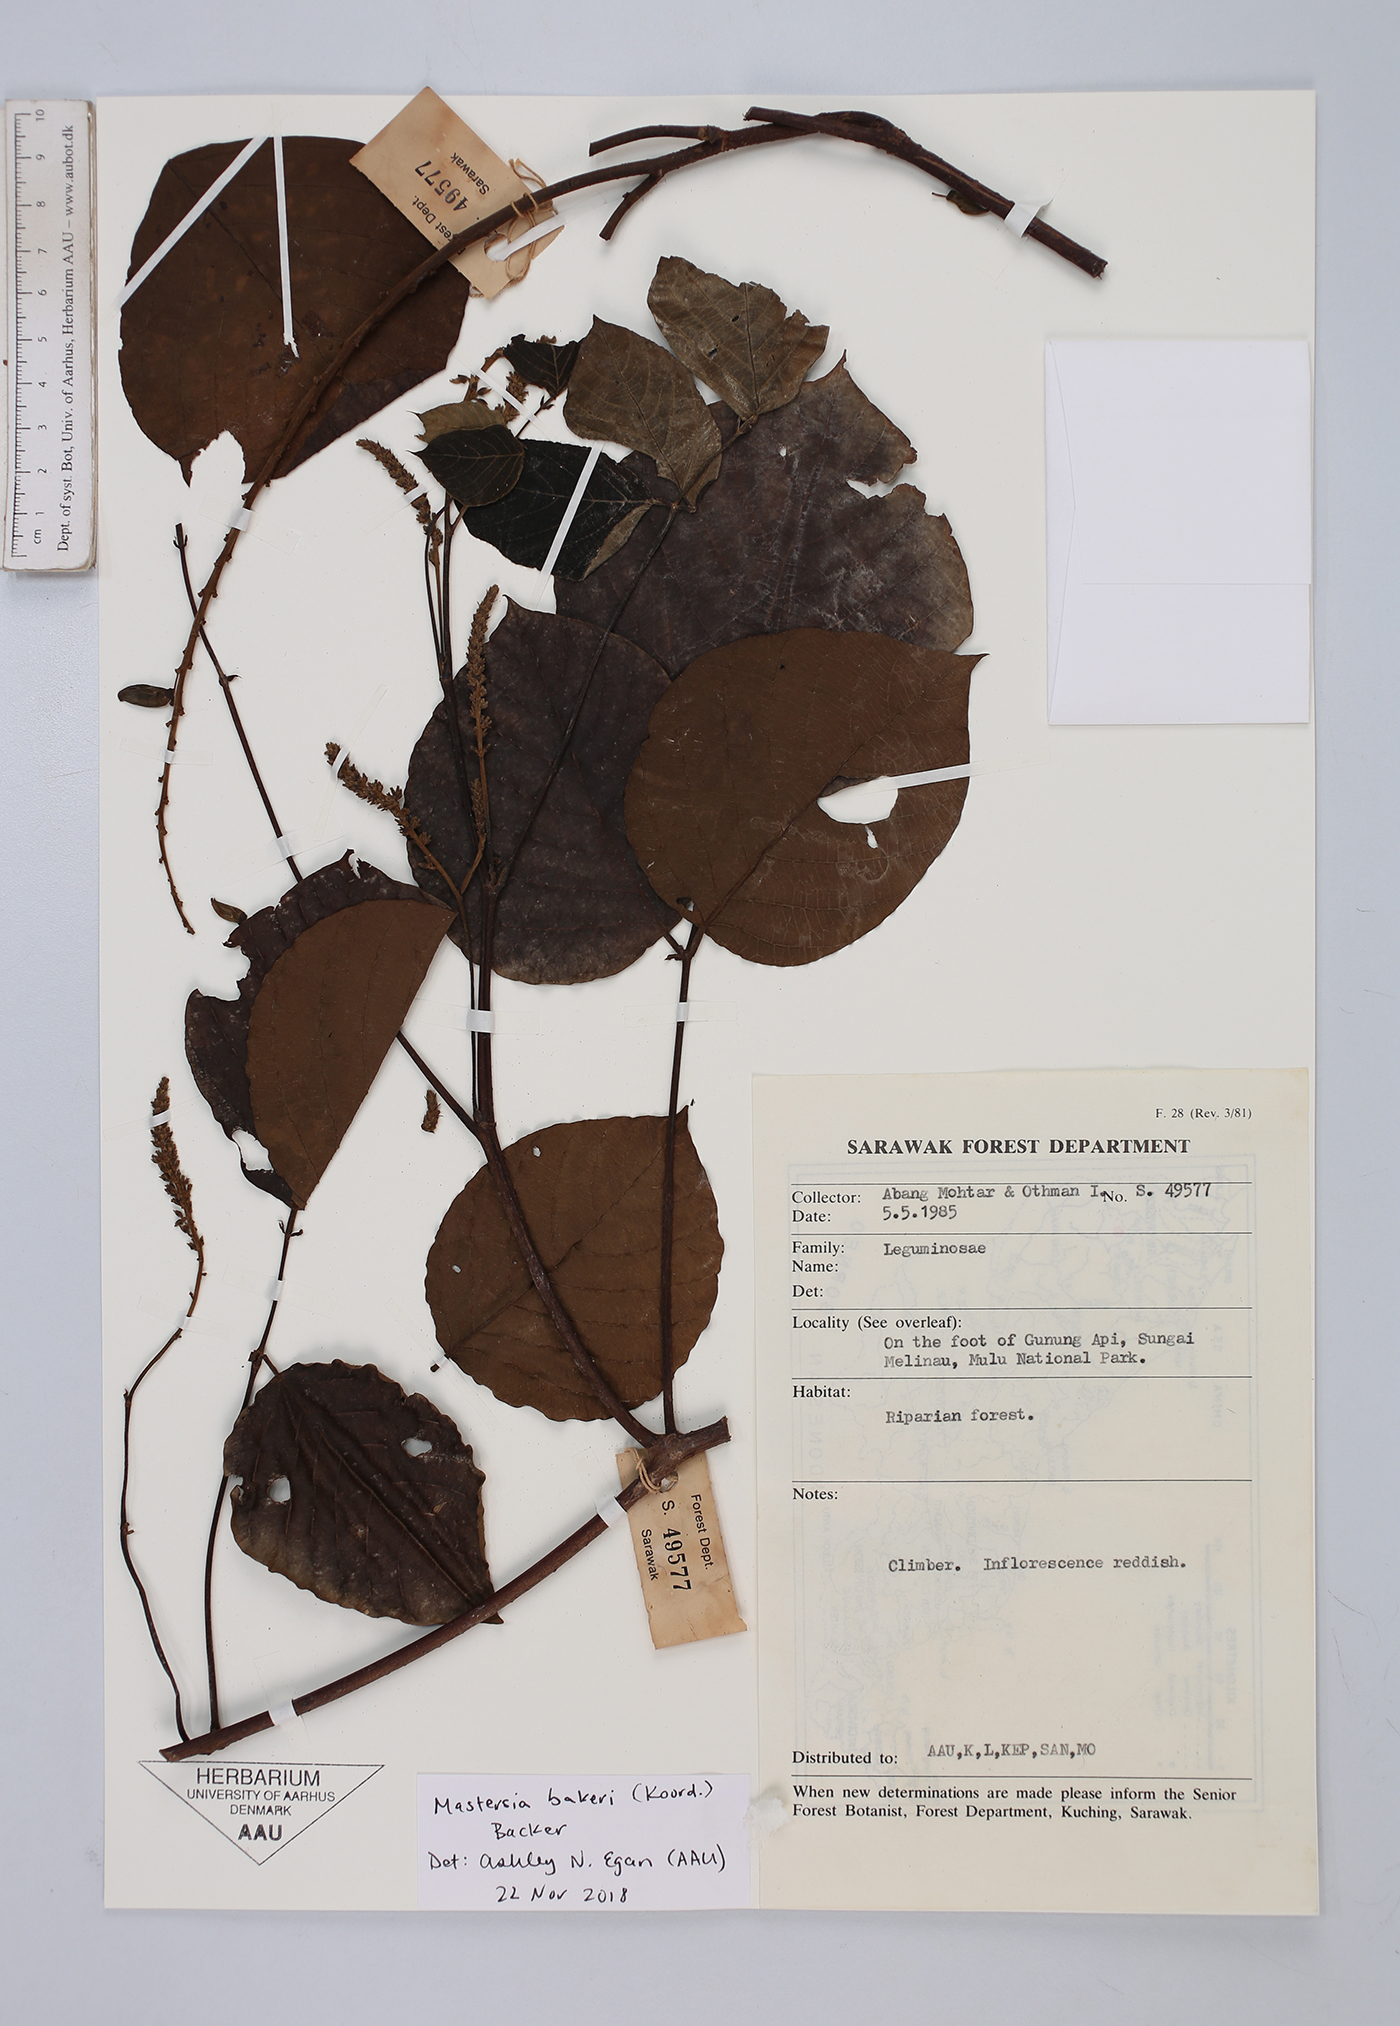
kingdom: Plantae
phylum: Tracheophyta
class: Magnoliopsida
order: Fabales
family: Fabaceae
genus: Mastersia
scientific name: Mastersia bakeri
